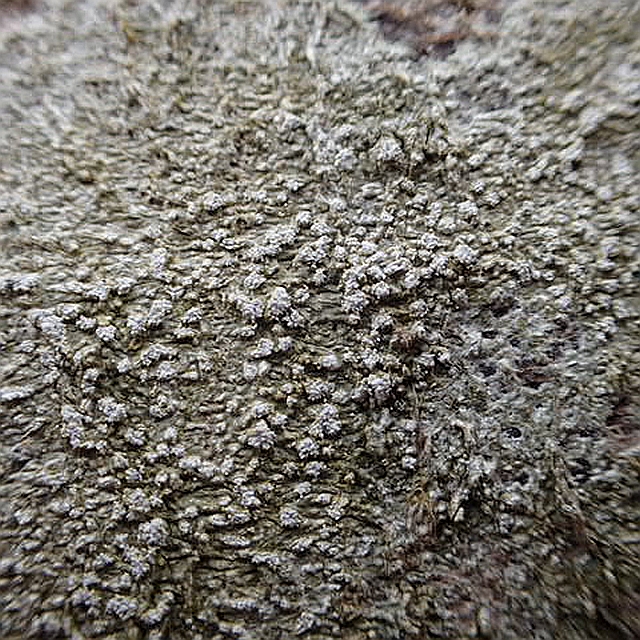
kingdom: Fungi
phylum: Ascomycota
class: Lecanoromycetes
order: Pertusariales
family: Pertusariaceae
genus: Lepra
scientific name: Lepra amara
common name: bitter prikvortelav
